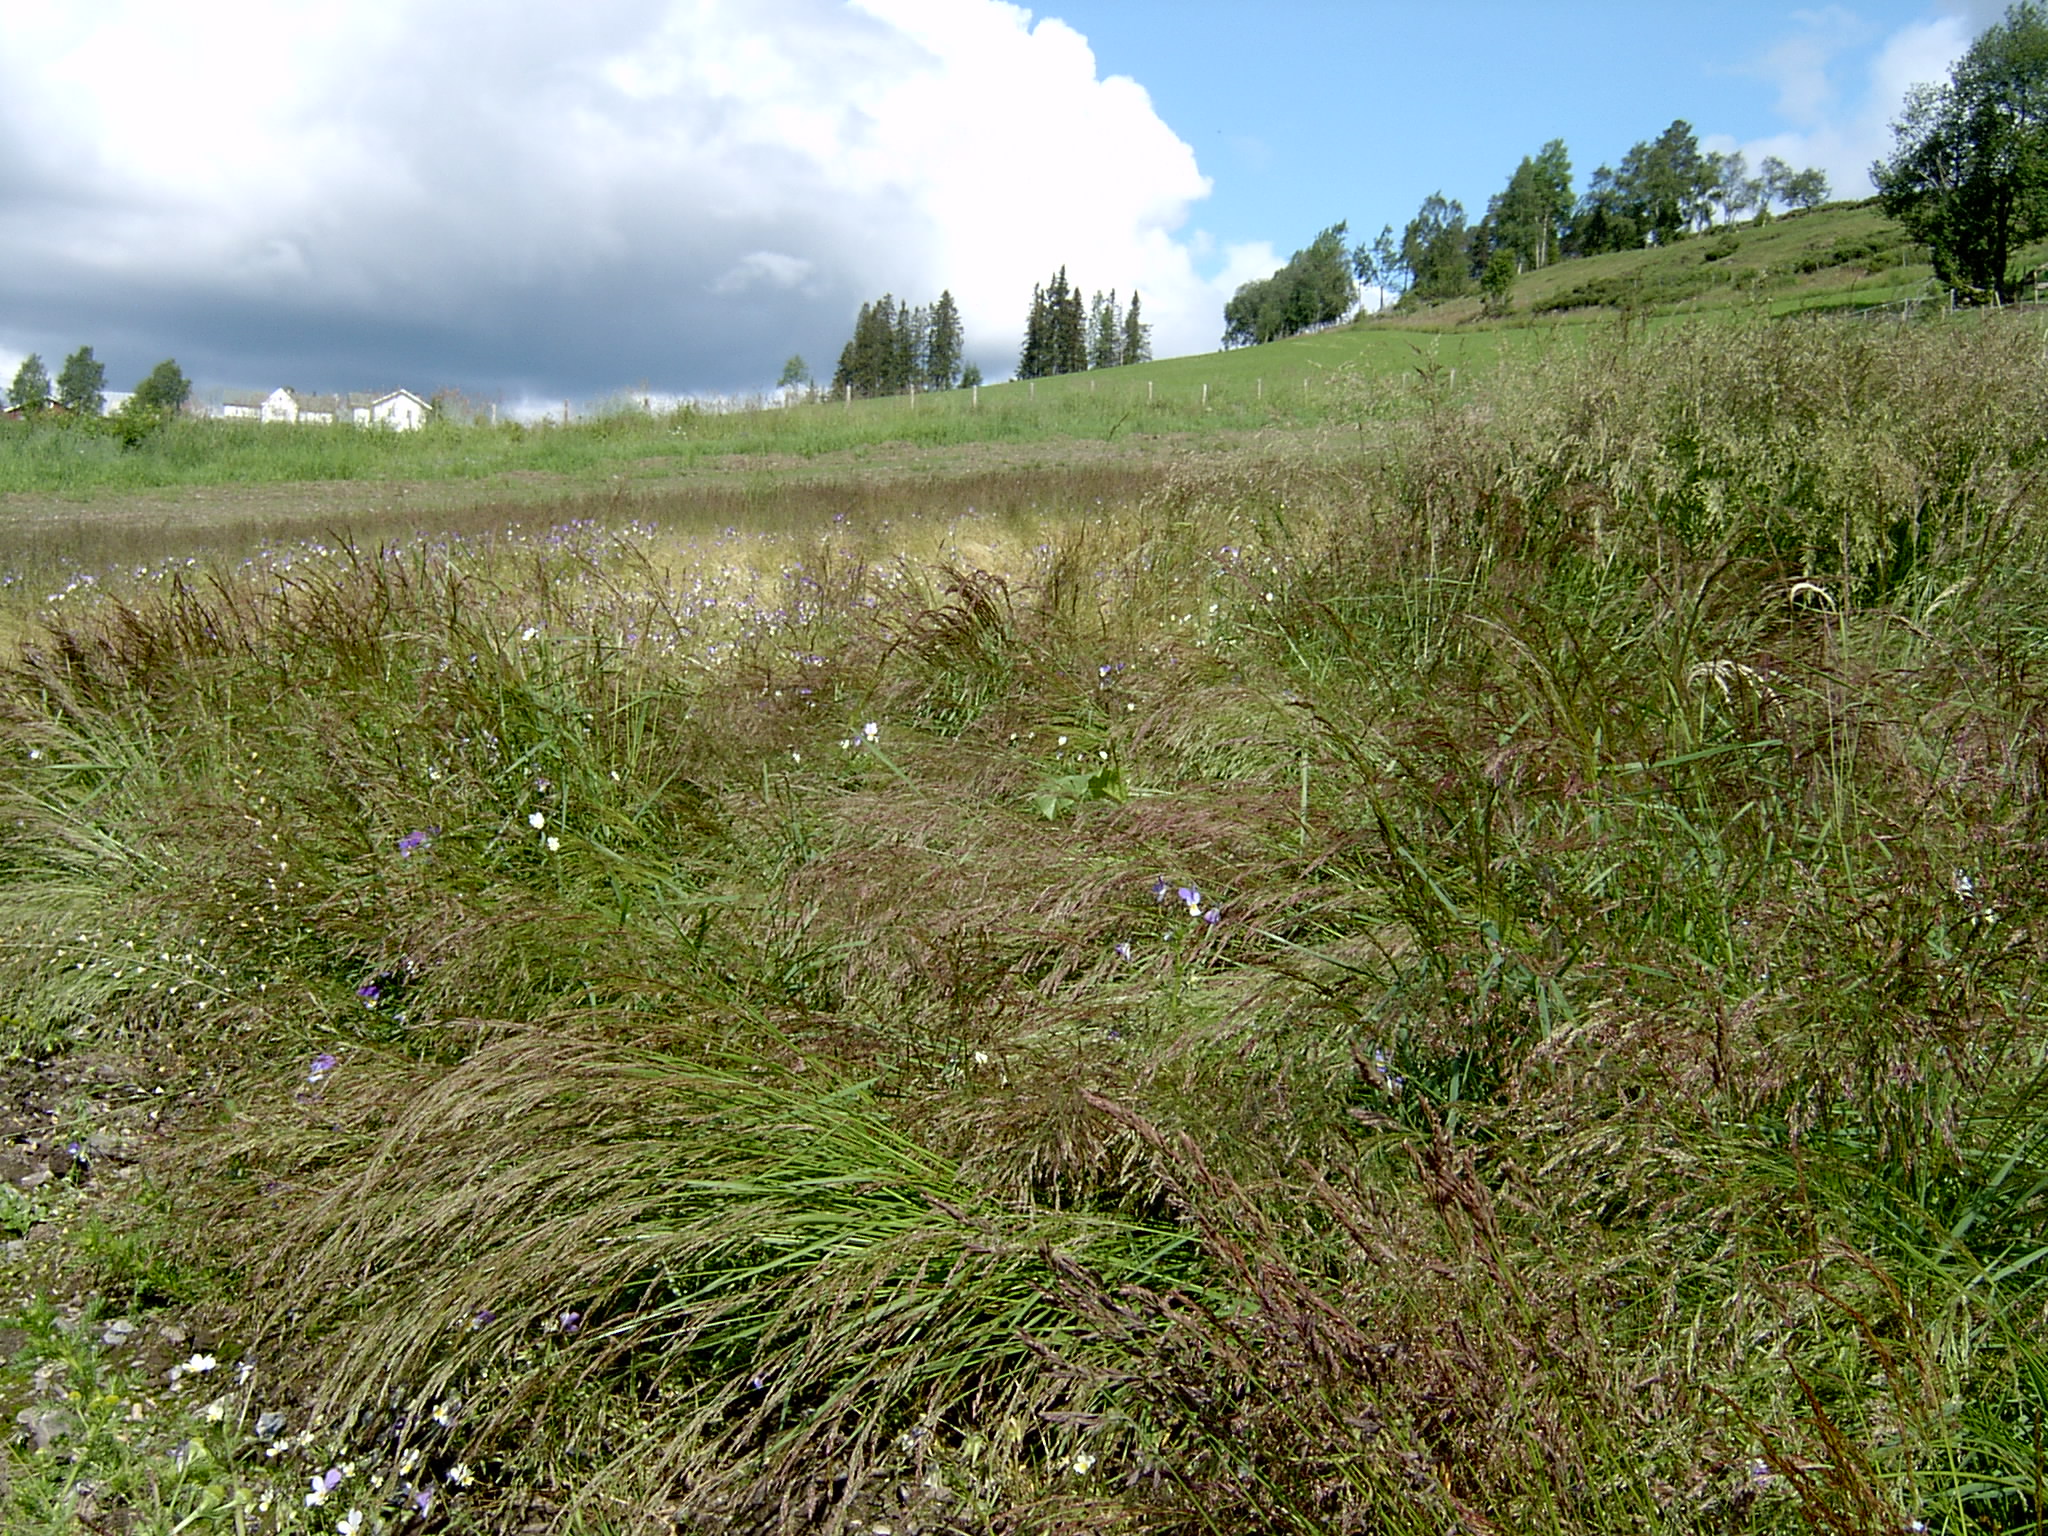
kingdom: Plantae
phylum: Tracheophyta
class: Liliopsida
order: Poales
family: Poaceae
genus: Agrostis
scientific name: Agrostis capillaris
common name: Colonial bentgrass
